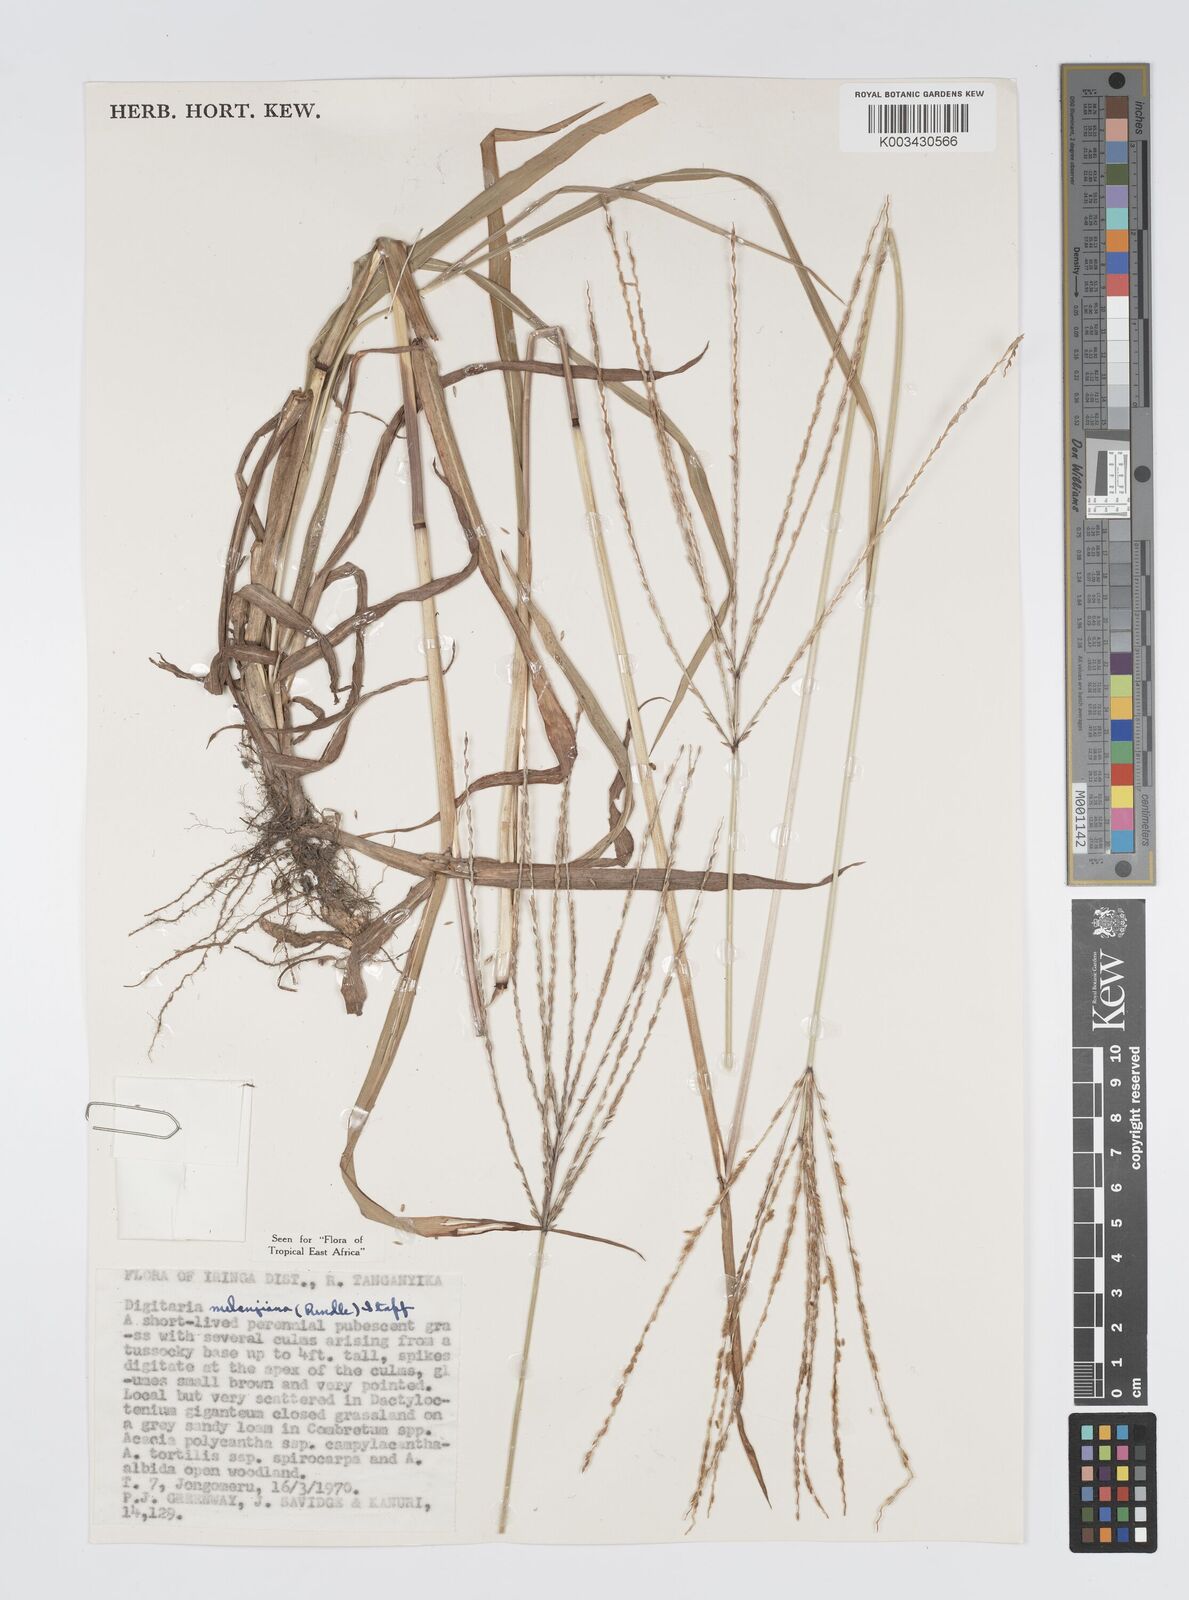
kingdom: Plantae
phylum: Tracheophyta
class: Liliopsida
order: Poales
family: Poaceae
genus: Digitaria
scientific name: Digitaria milanjiana
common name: Madagascar crabgrass
